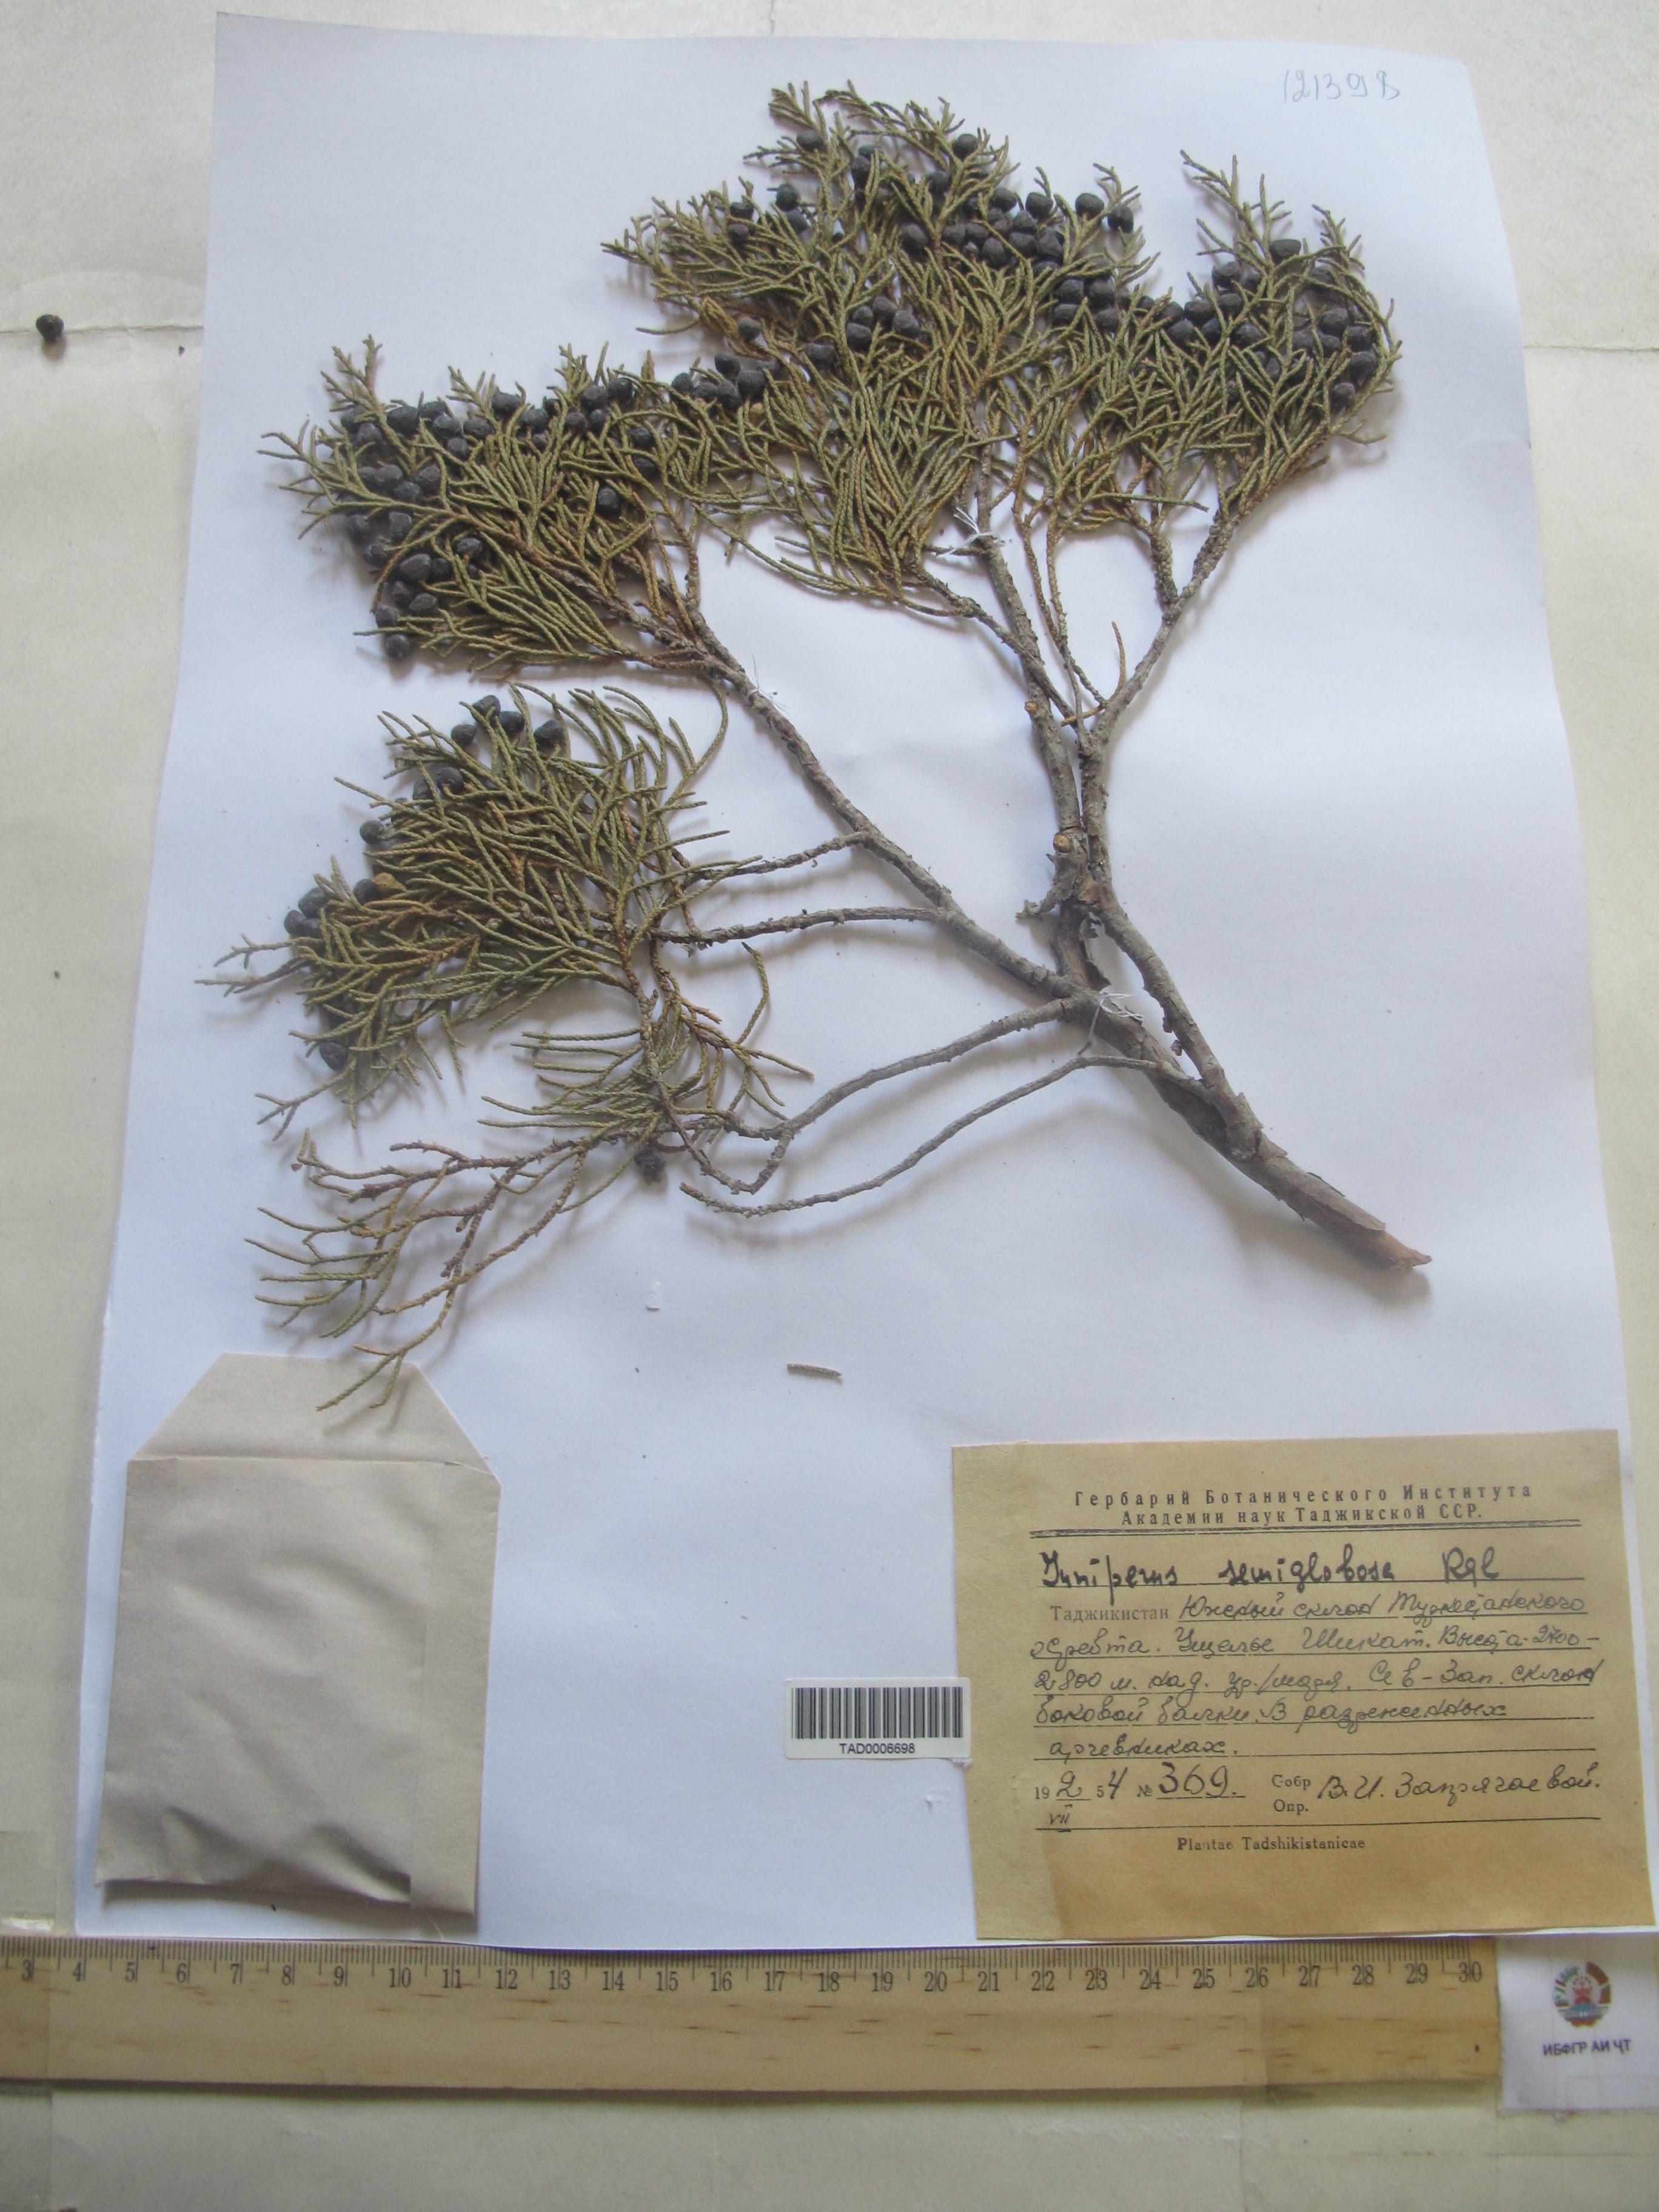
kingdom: Plantae
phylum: Tracheophyta
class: Pinopsida
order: Pinales
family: Cupressaceae
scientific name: Cupressaceae
